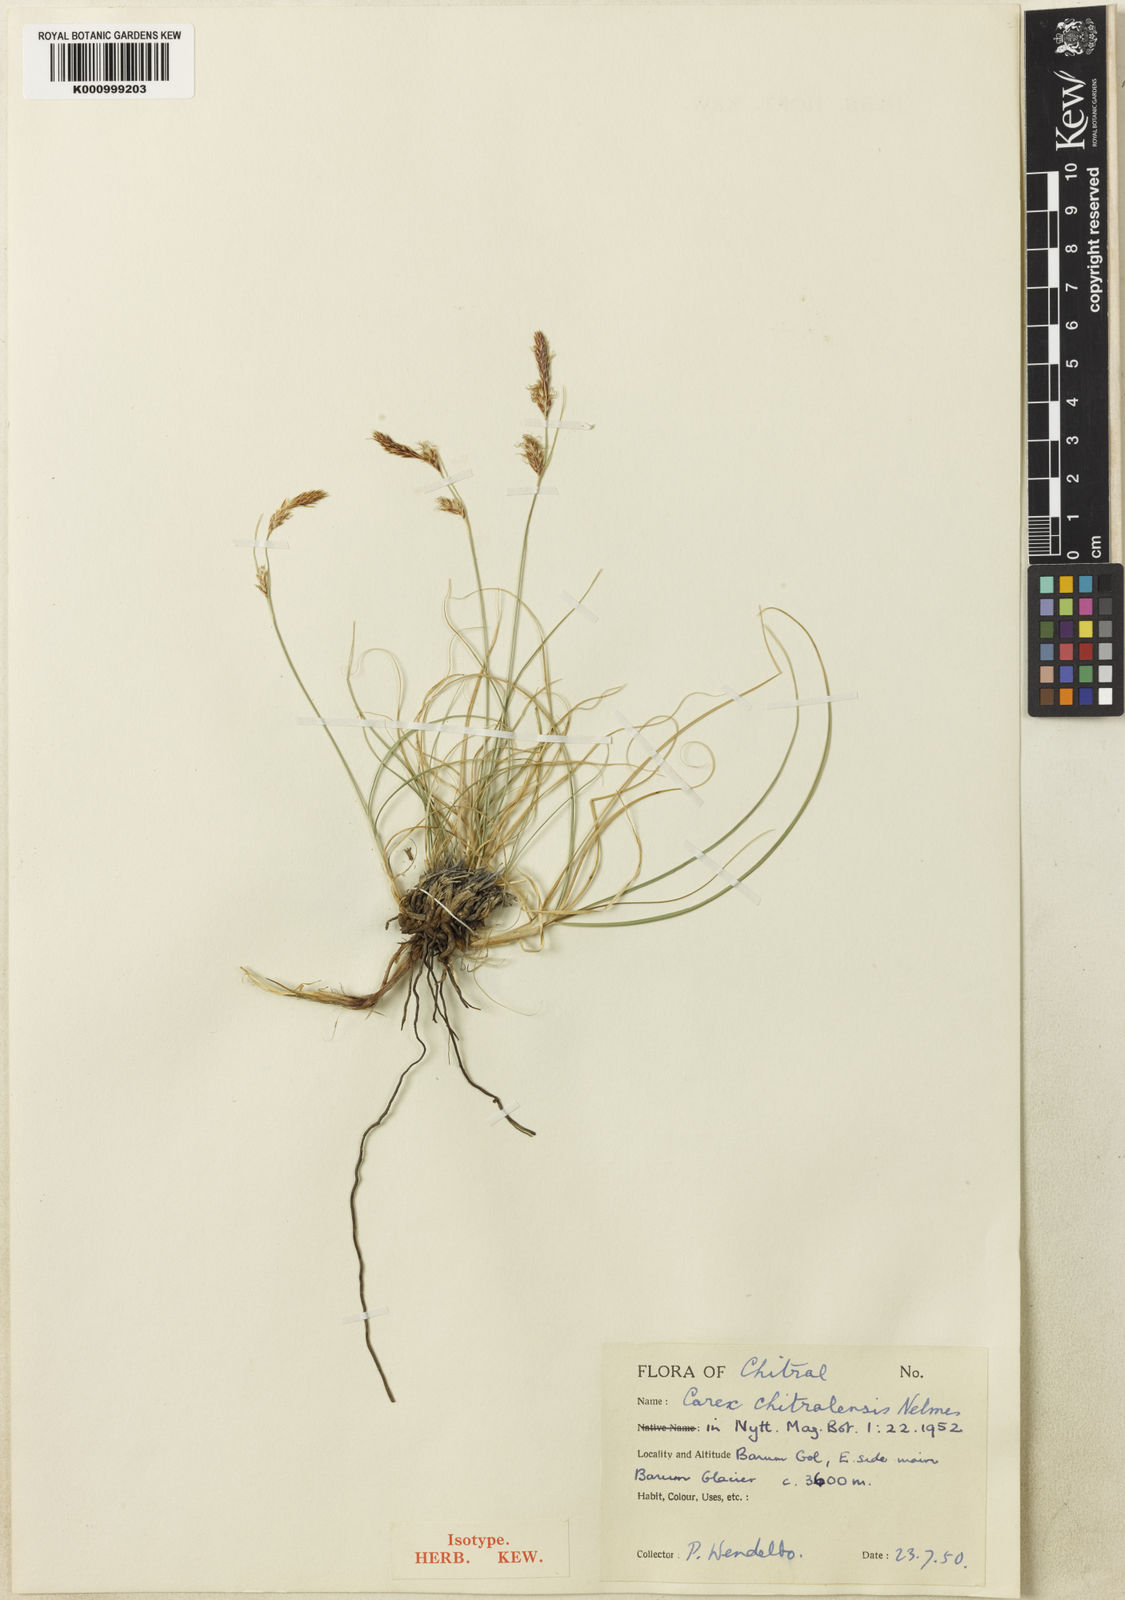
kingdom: Plantae
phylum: Tracheophyta
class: Liliopsida
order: Poales
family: Cyperaceae
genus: Carex
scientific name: Carex koshewnikowii
